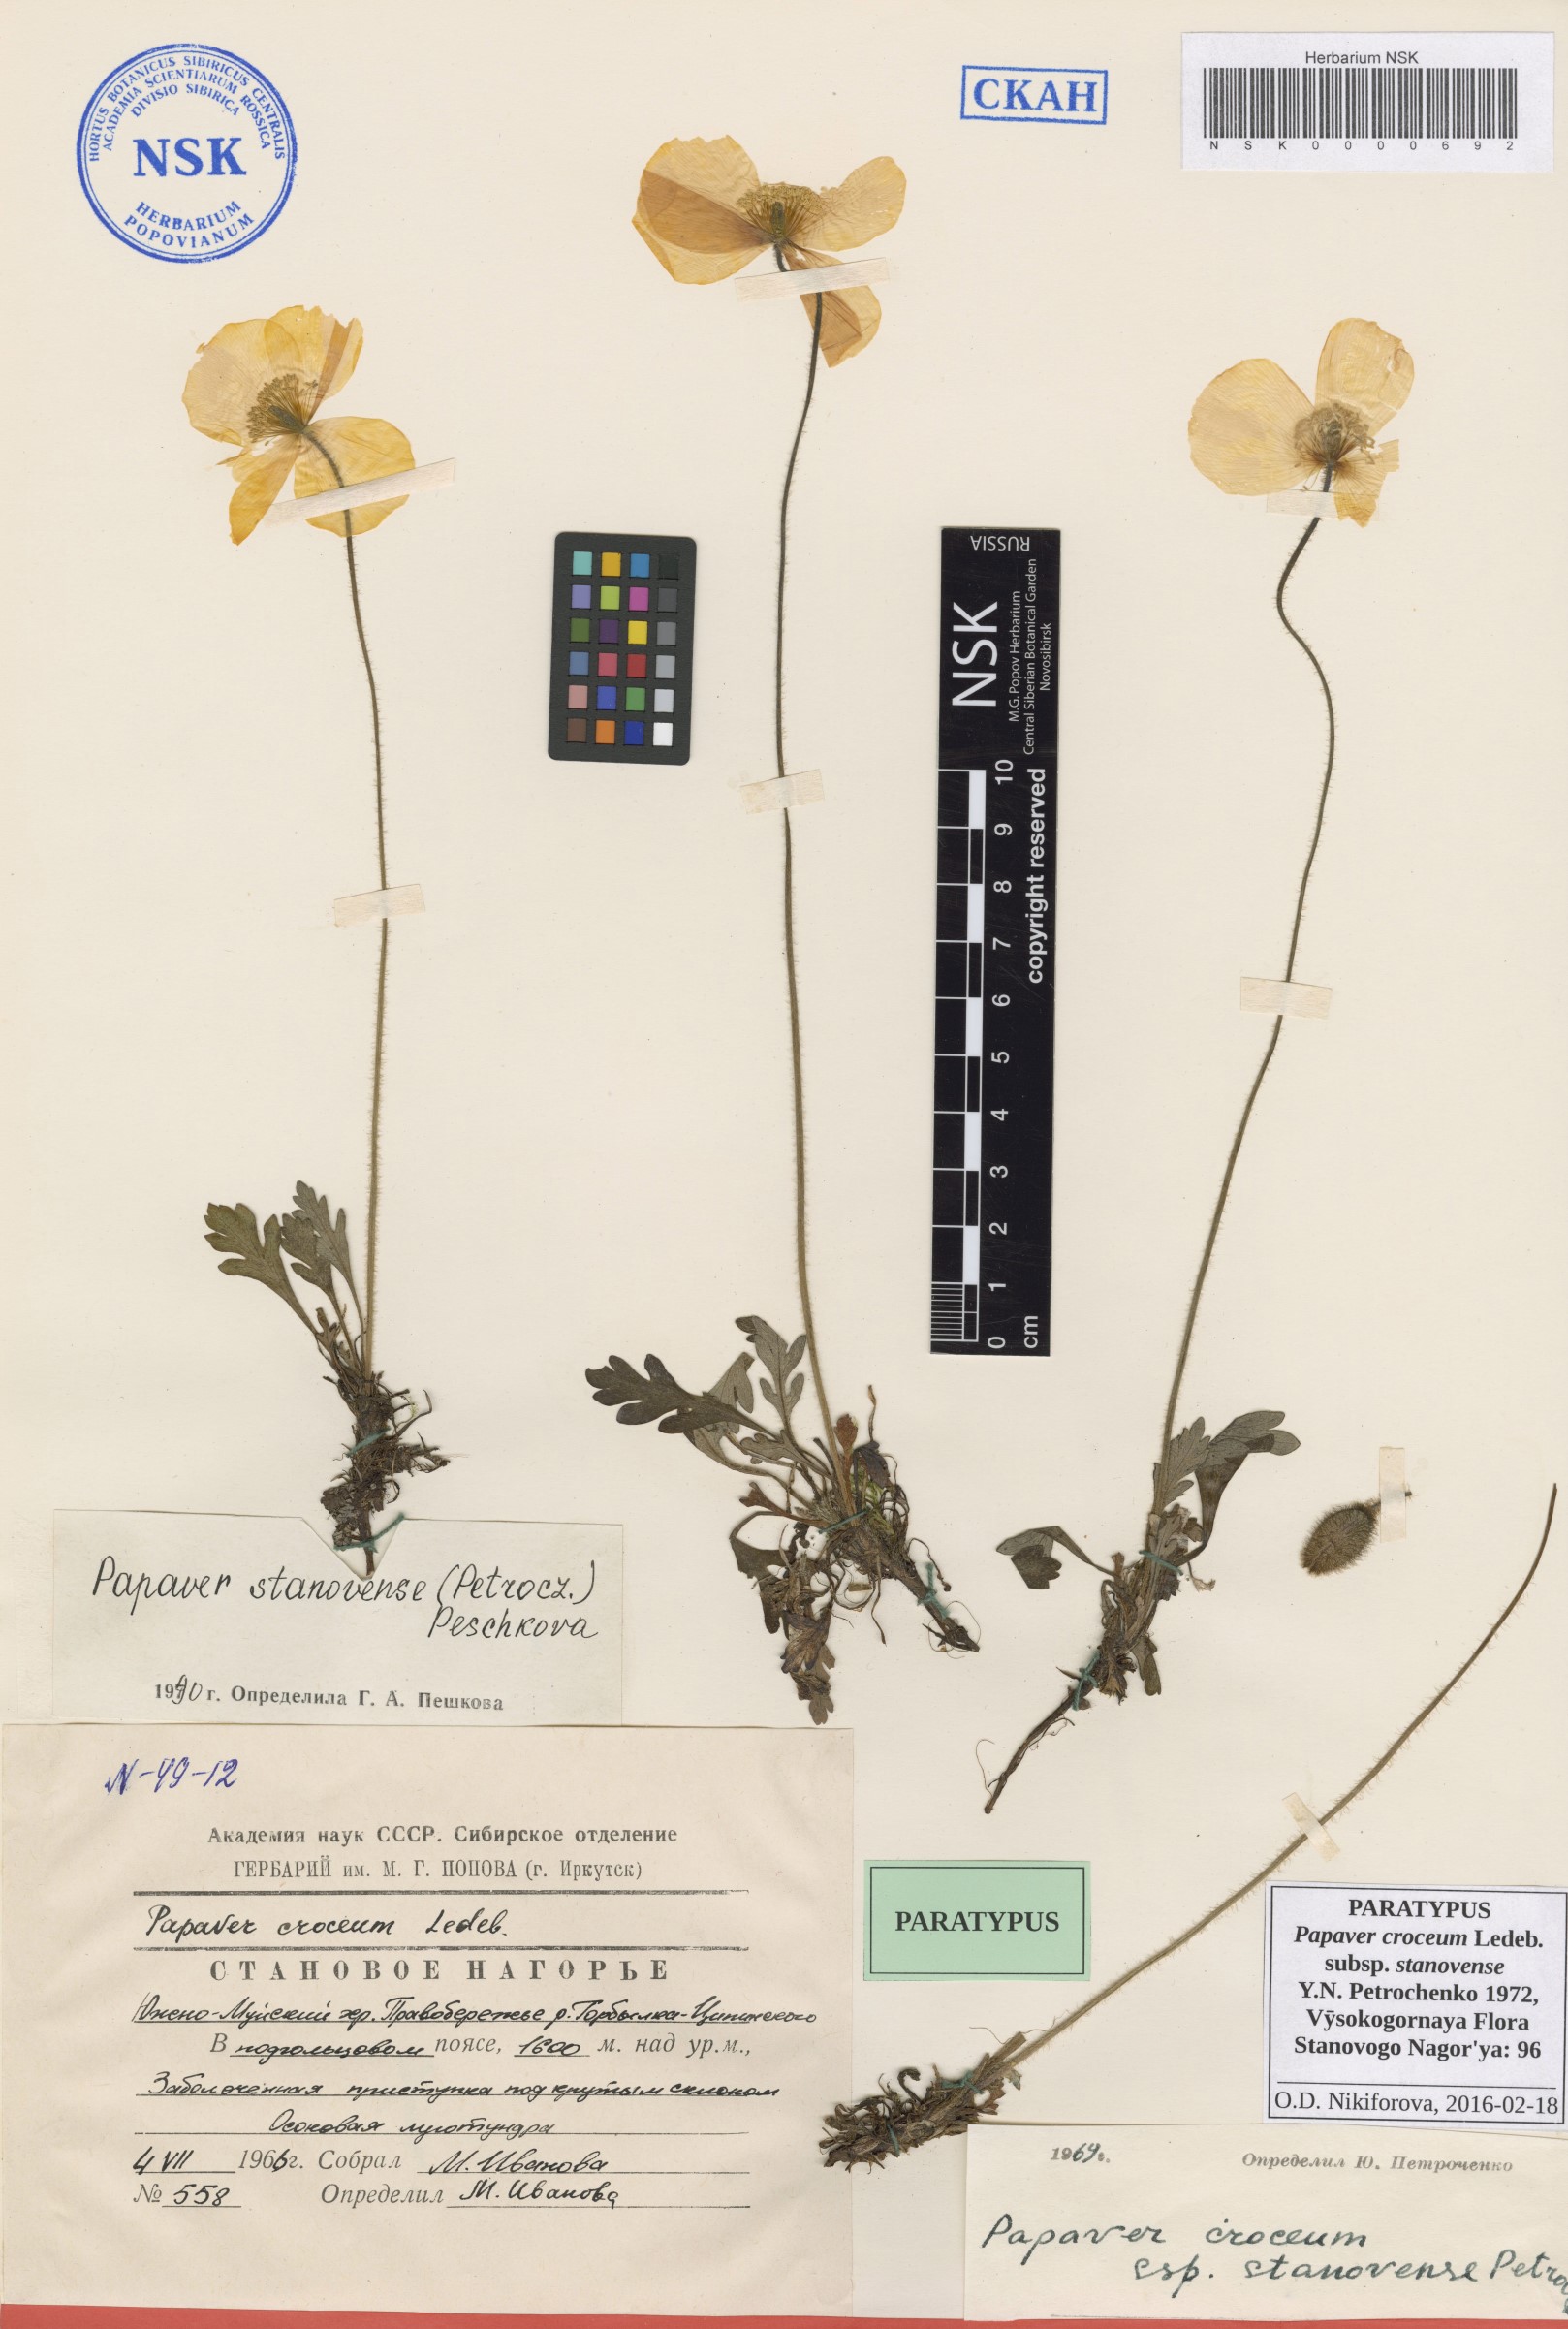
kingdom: Plantae
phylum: Tracheophyta
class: Magnoliopsida
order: Ranunculales
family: Papaveraceae
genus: Papaver
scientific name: Papaver stanovense
